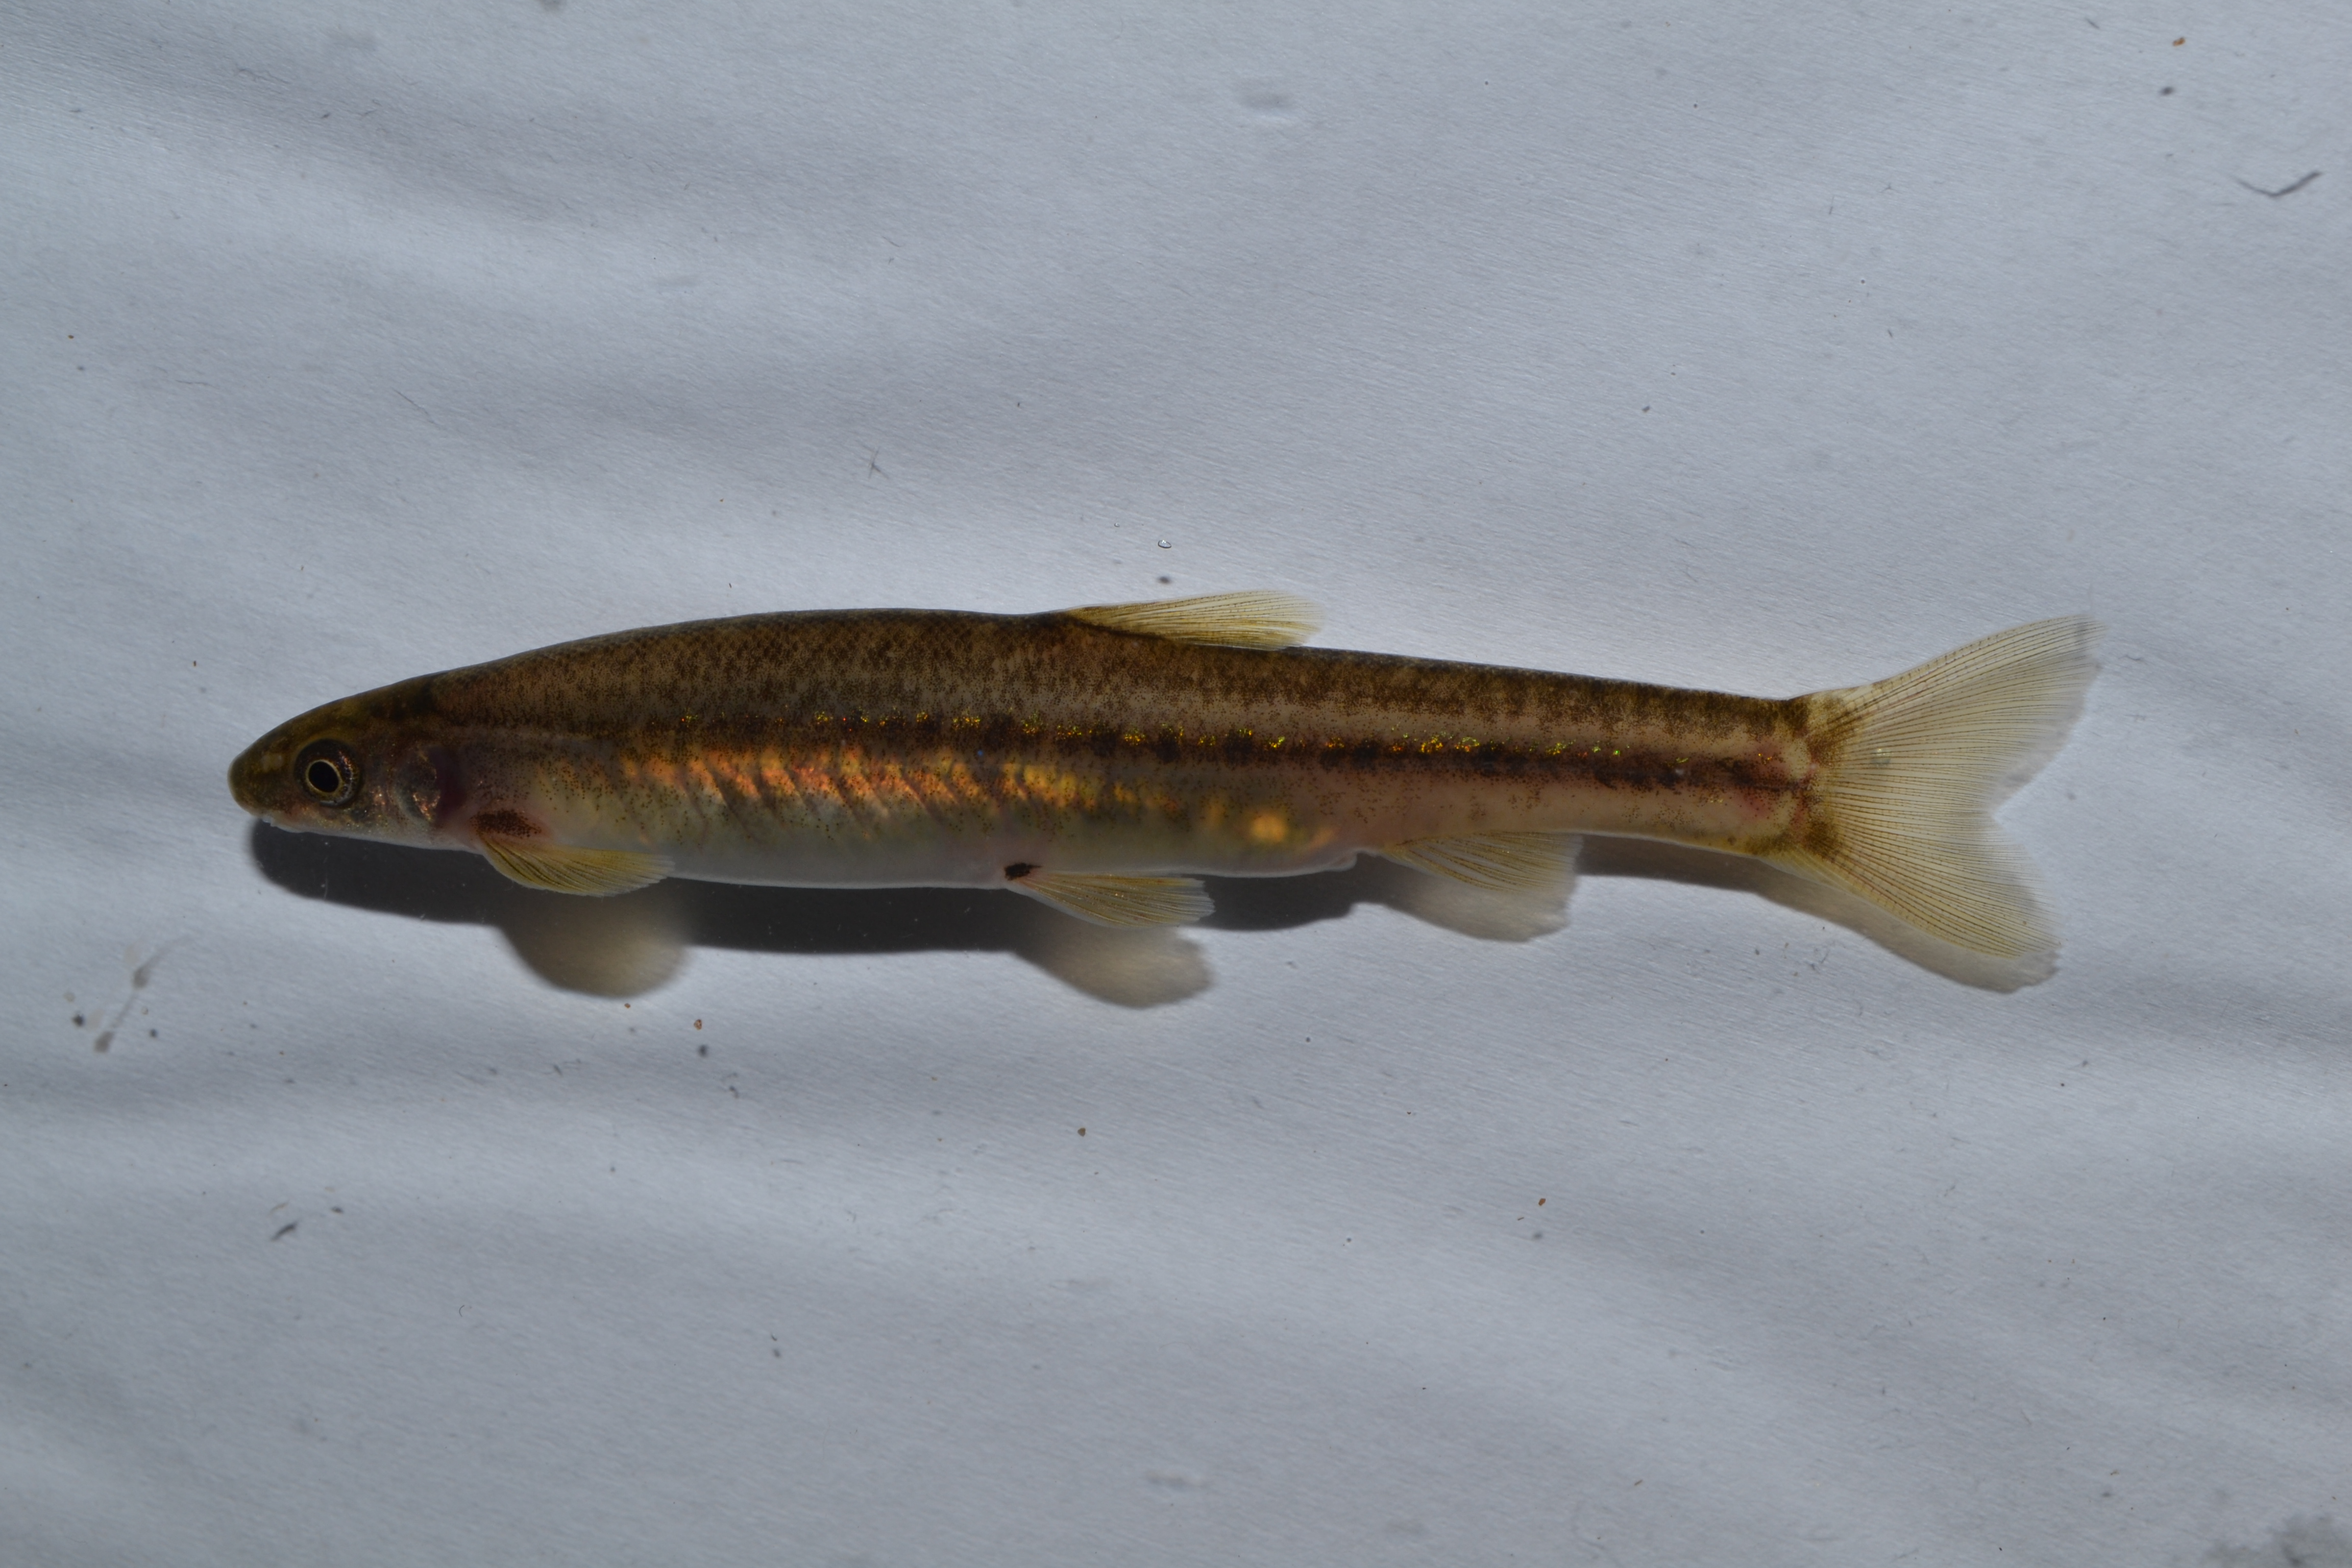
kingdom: Animalia
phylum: Chordata
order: Gonorynchiformes
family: Kneriidae
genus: Kneria
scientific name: Kneria auriculata
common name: Airbreathing shellear
